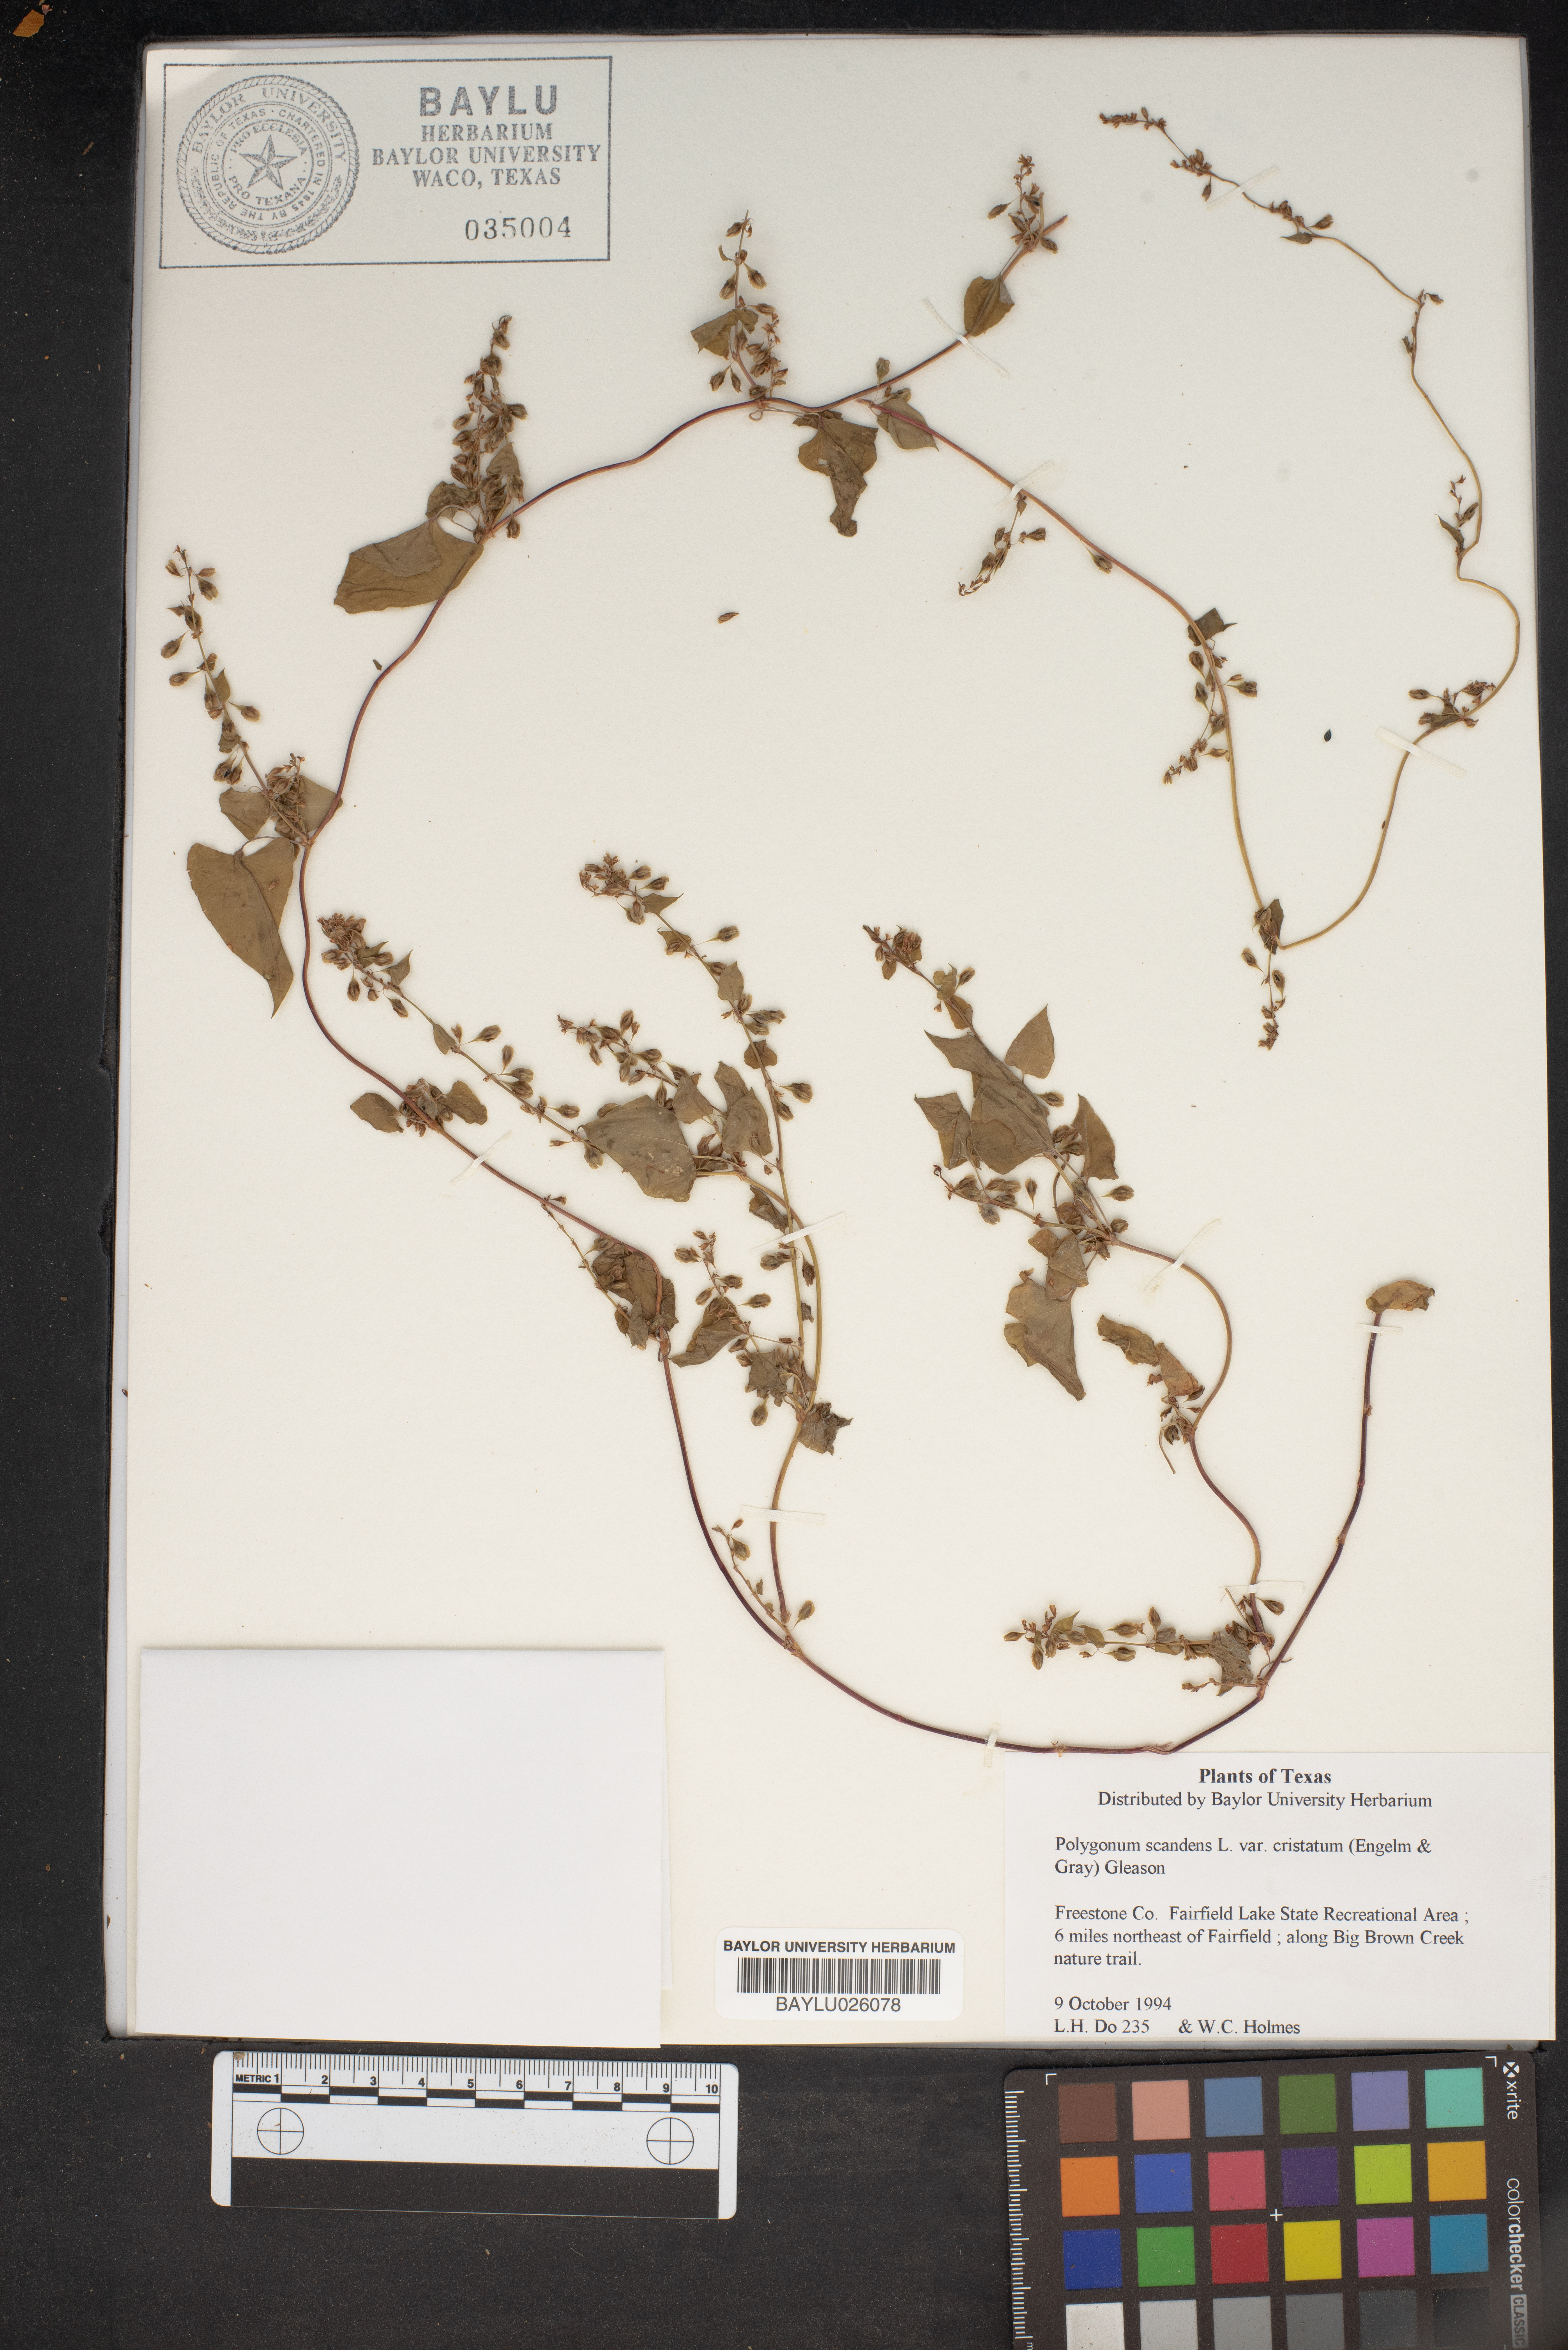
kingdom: Plantae
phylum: Tracheophyta
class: Magnoliopsida
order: Caryophyllales
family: Polygonaceae
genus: Fallopia
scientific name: Fallopia scandens
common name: Climbing false buckwheat
